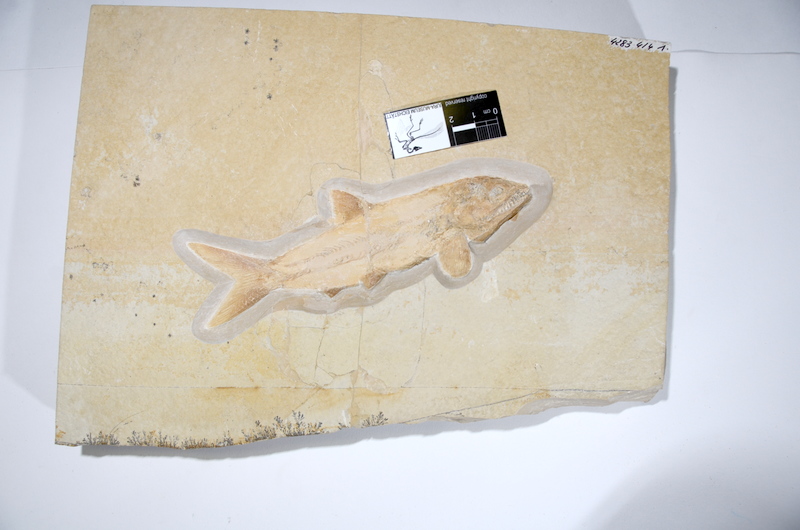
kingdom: Animalia
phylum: Chordata
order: Amiiformes
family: Caturidae
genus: Amblysemius
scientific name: Amblysemius pachyurus
